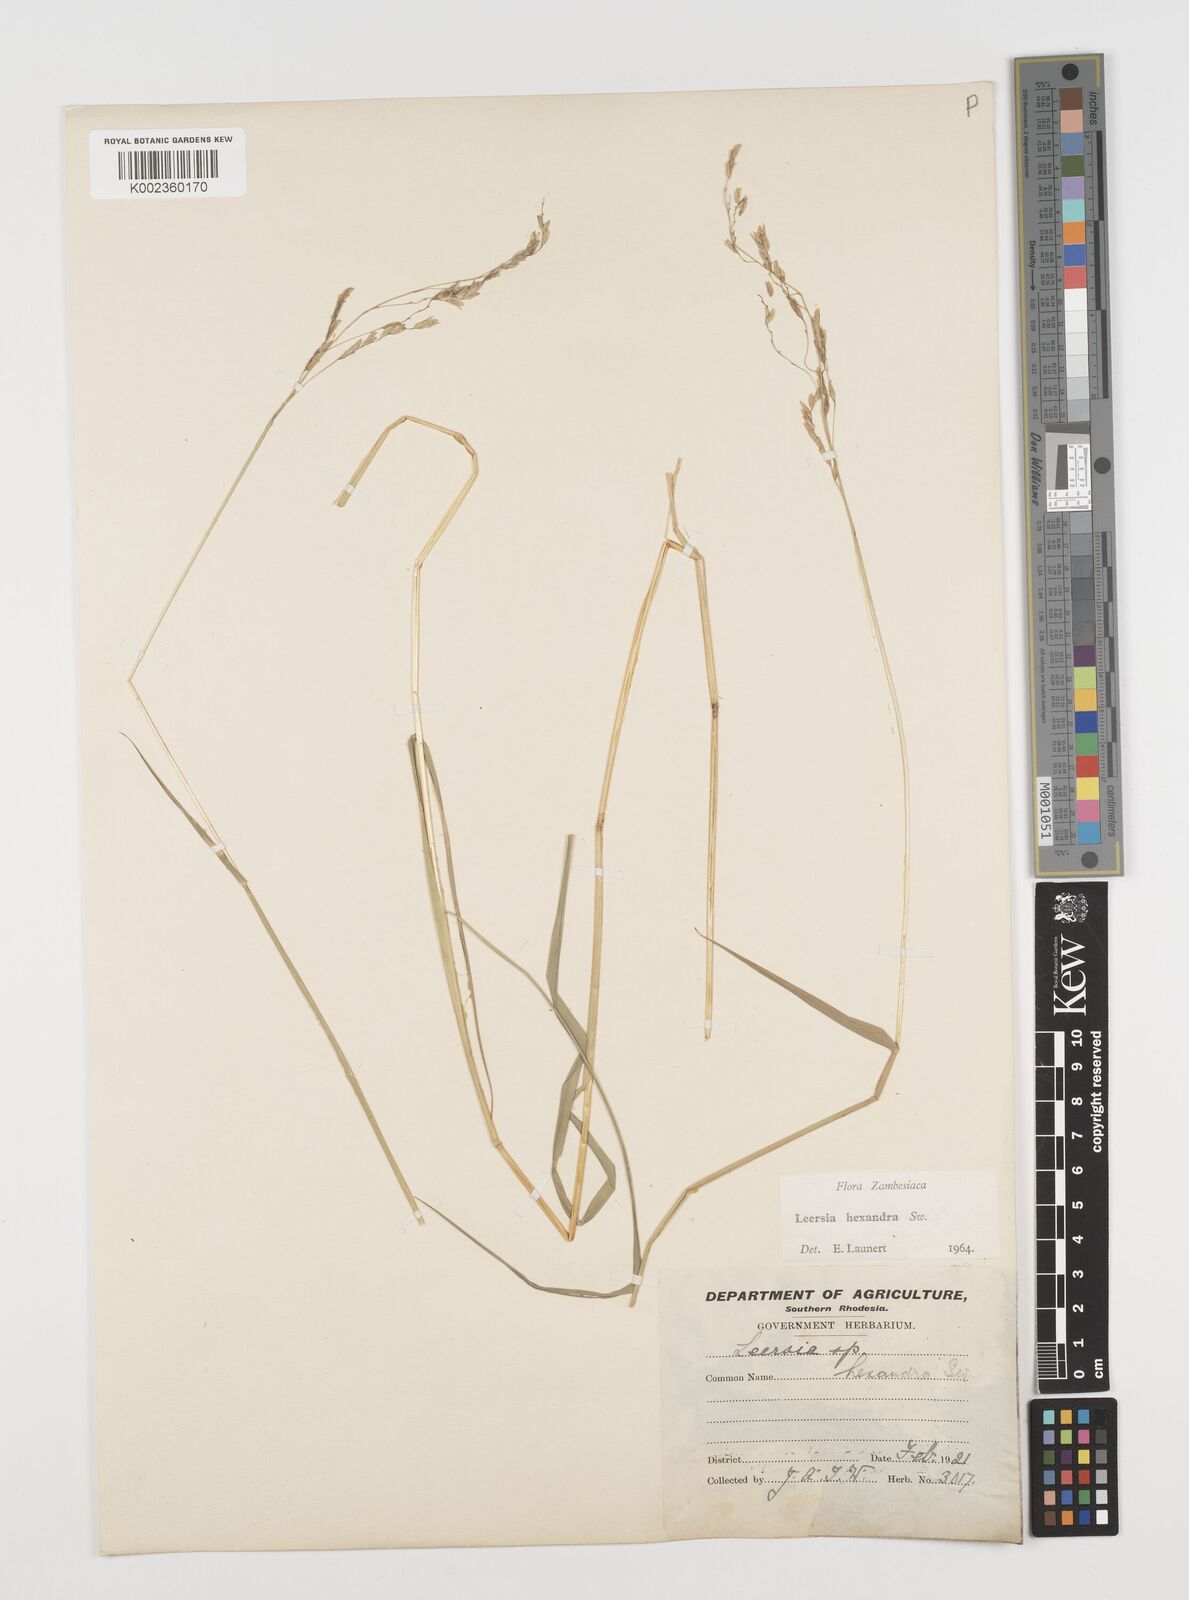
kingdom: Plantae
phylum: Tracheophyta
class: Liliopsida
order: Poales
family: Poaceae
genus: Leersia
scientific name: Leersia hexandra
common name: Southern cut grass
